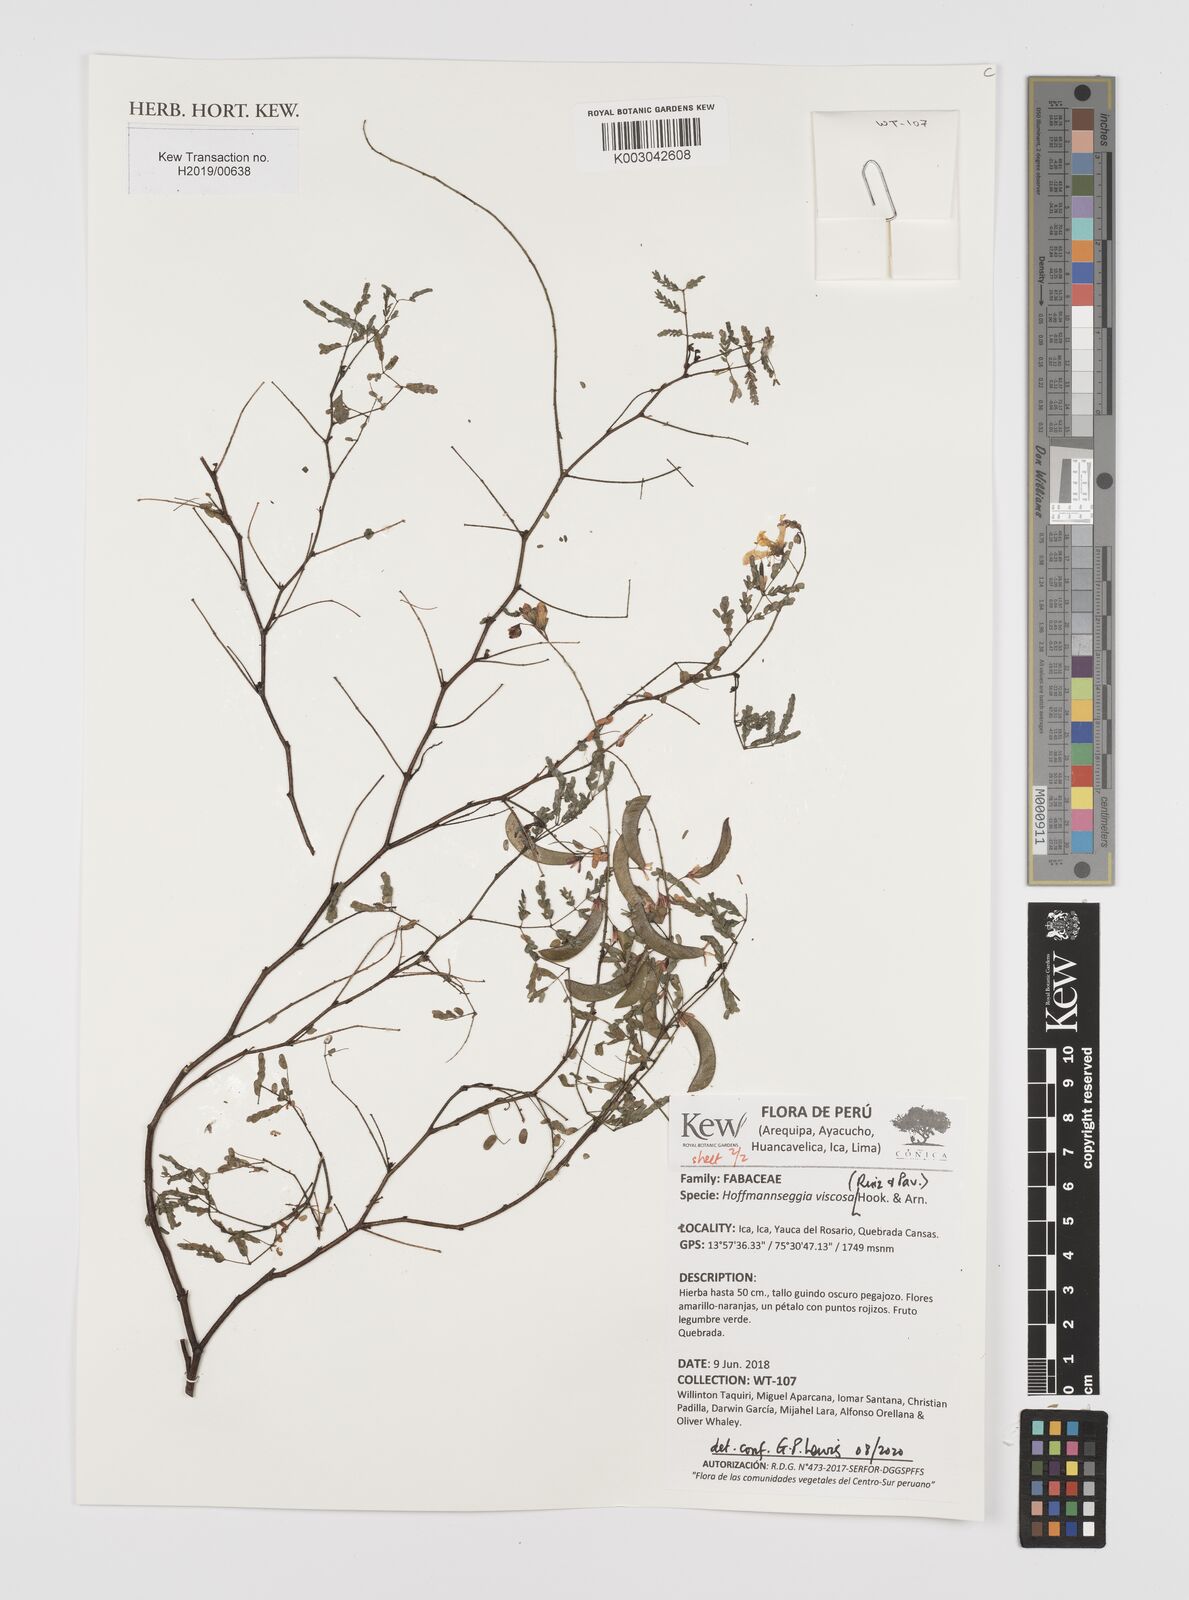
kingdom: Plantae
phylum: Tracheophyta
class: Magnoliopsida
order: Fabales
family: Fabaceae
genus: Hoffmannseggia
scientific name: Hoffmannseggia viscosa
